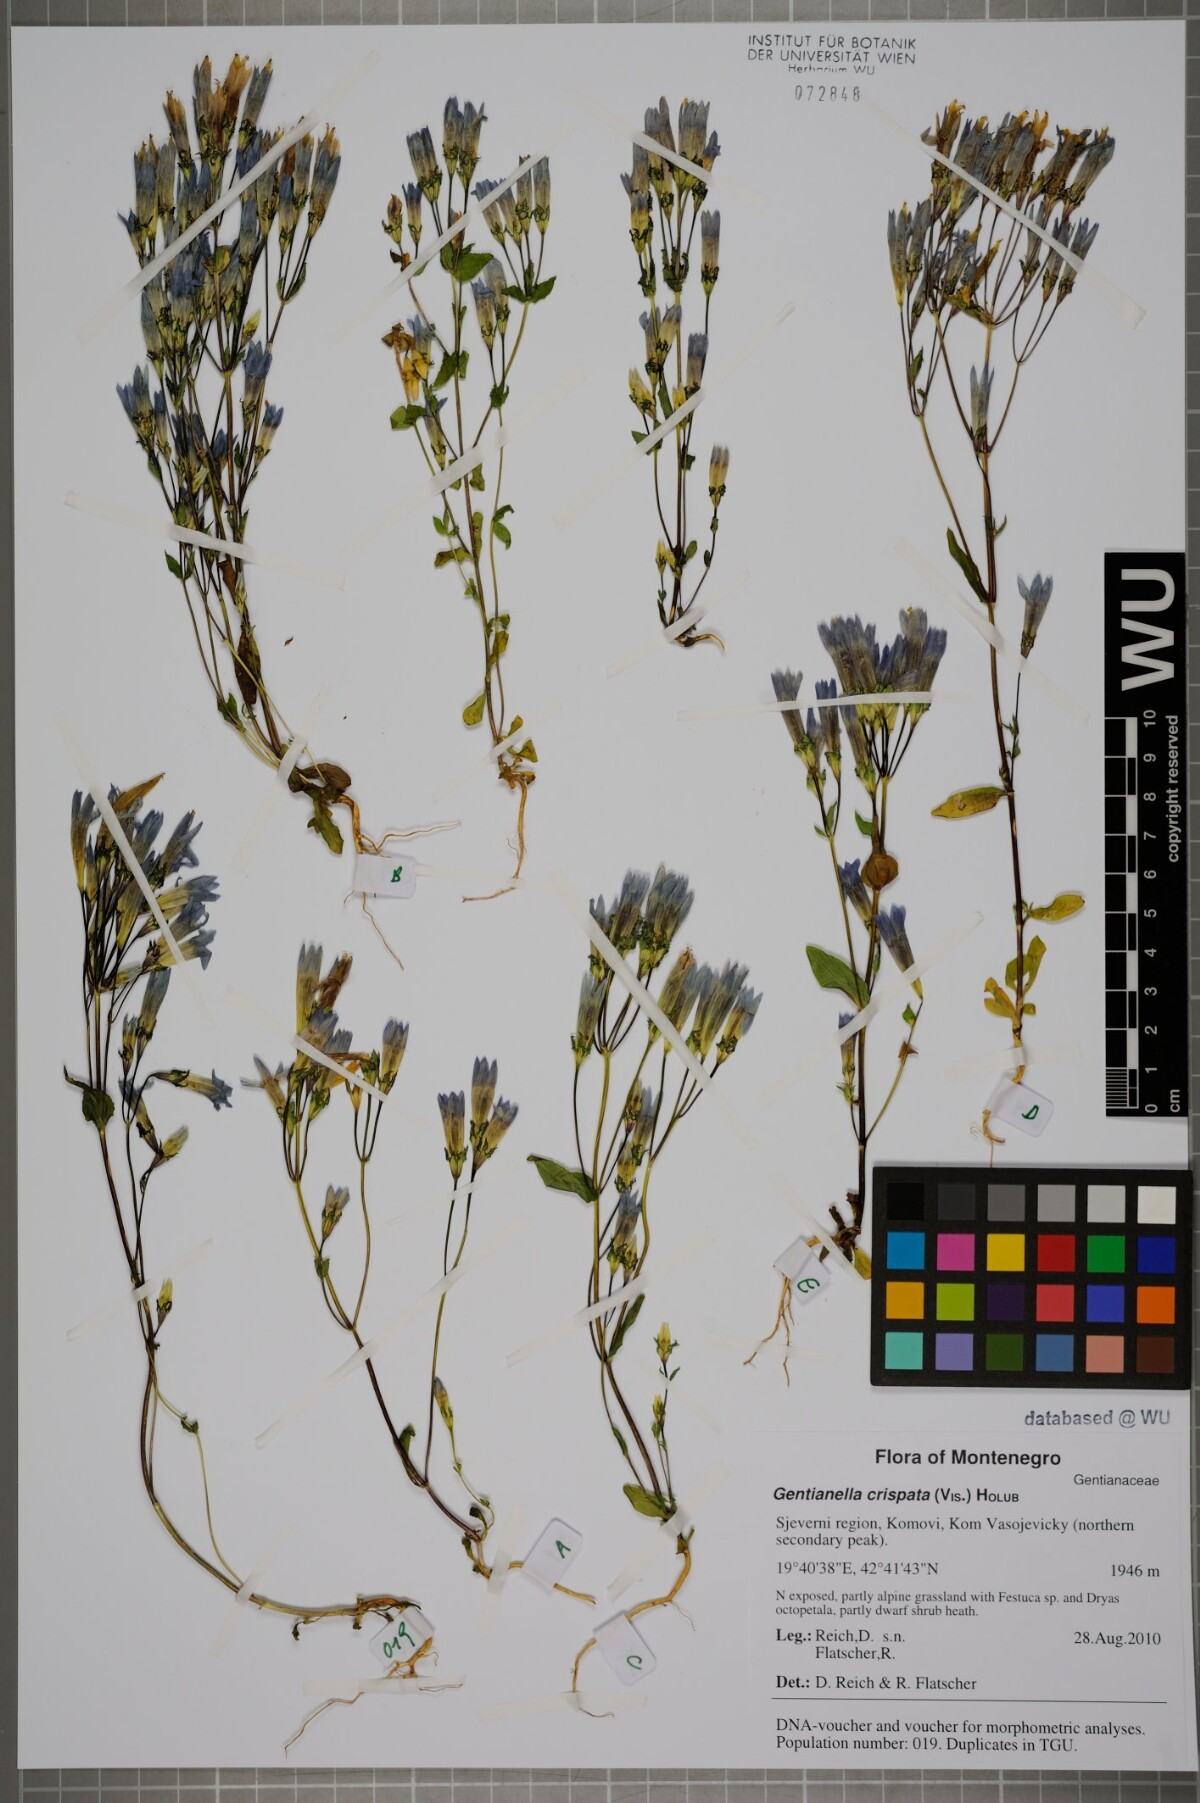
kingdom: Plantae
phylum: Tracheophyta
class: Magnoliopsida
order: Gentianales
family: Gentianaceae
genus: Gentianella
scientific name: Gentianella crispata
